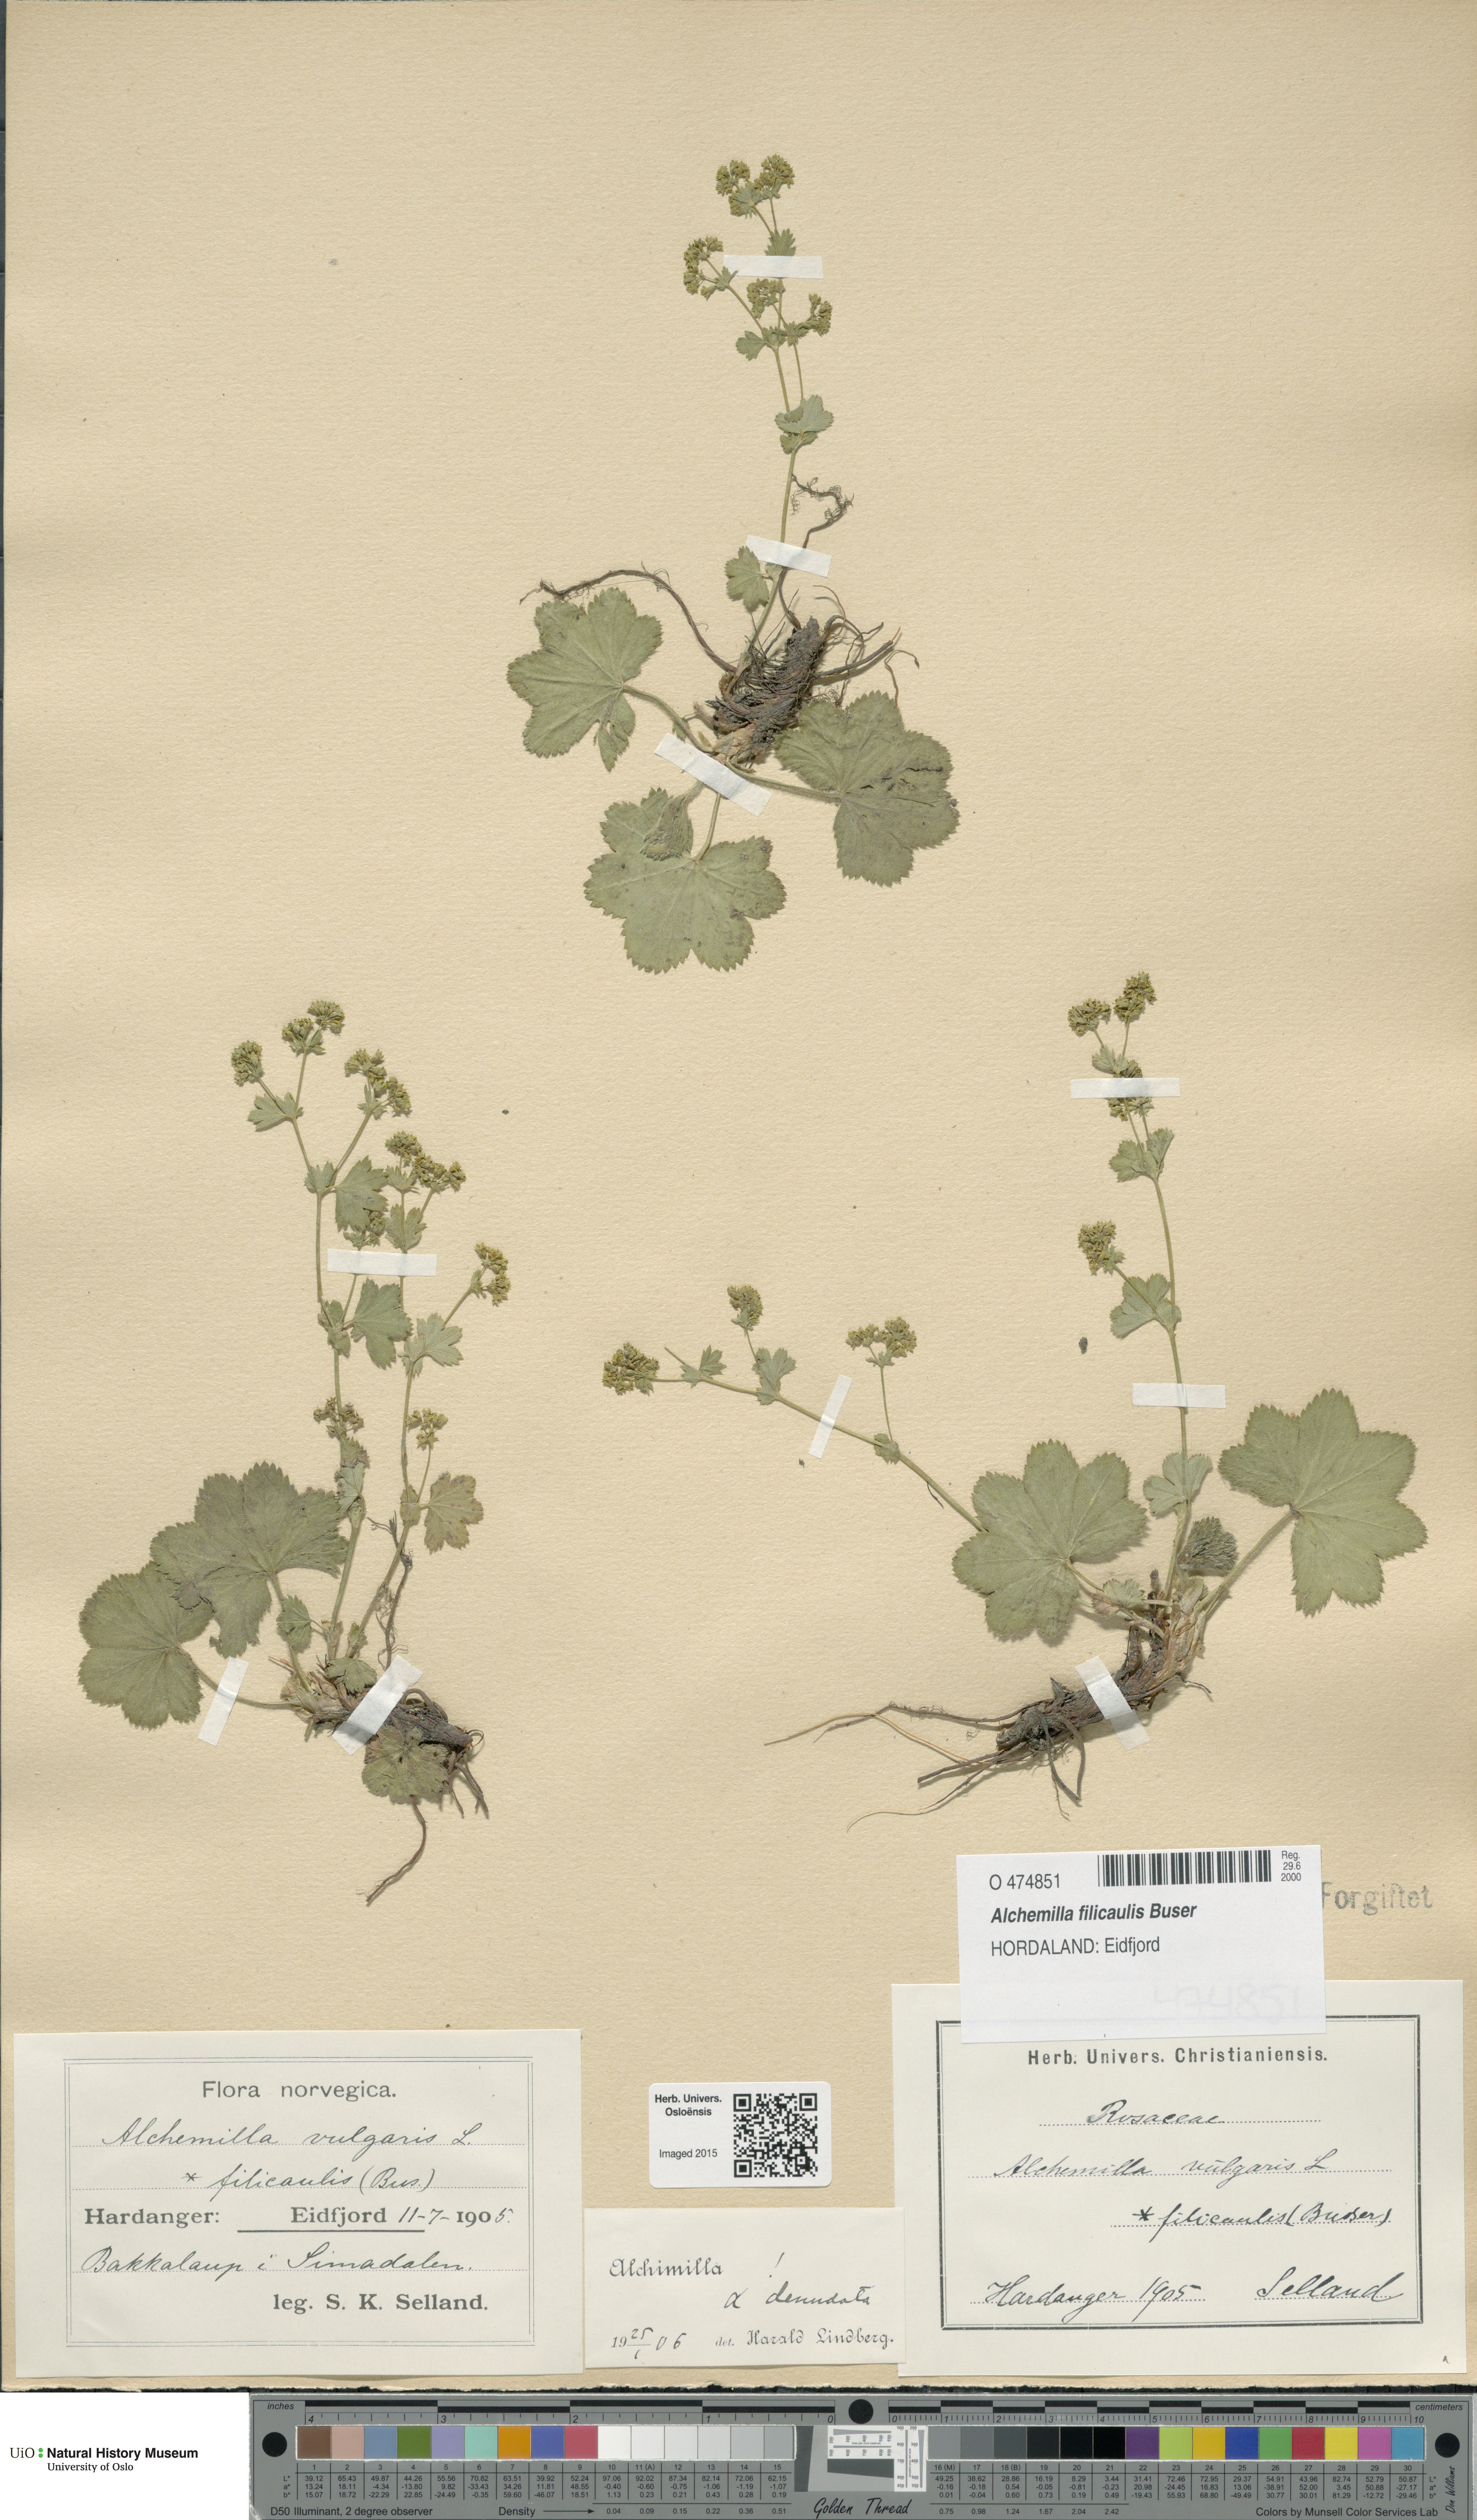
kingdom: Plantae
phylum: Tracheophyta
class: Magnoliopsida
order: Rosales
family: Rosaceae
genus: Alchemilla
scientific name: Alchemilla filicaulis
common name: Hairy lady's-mantle
